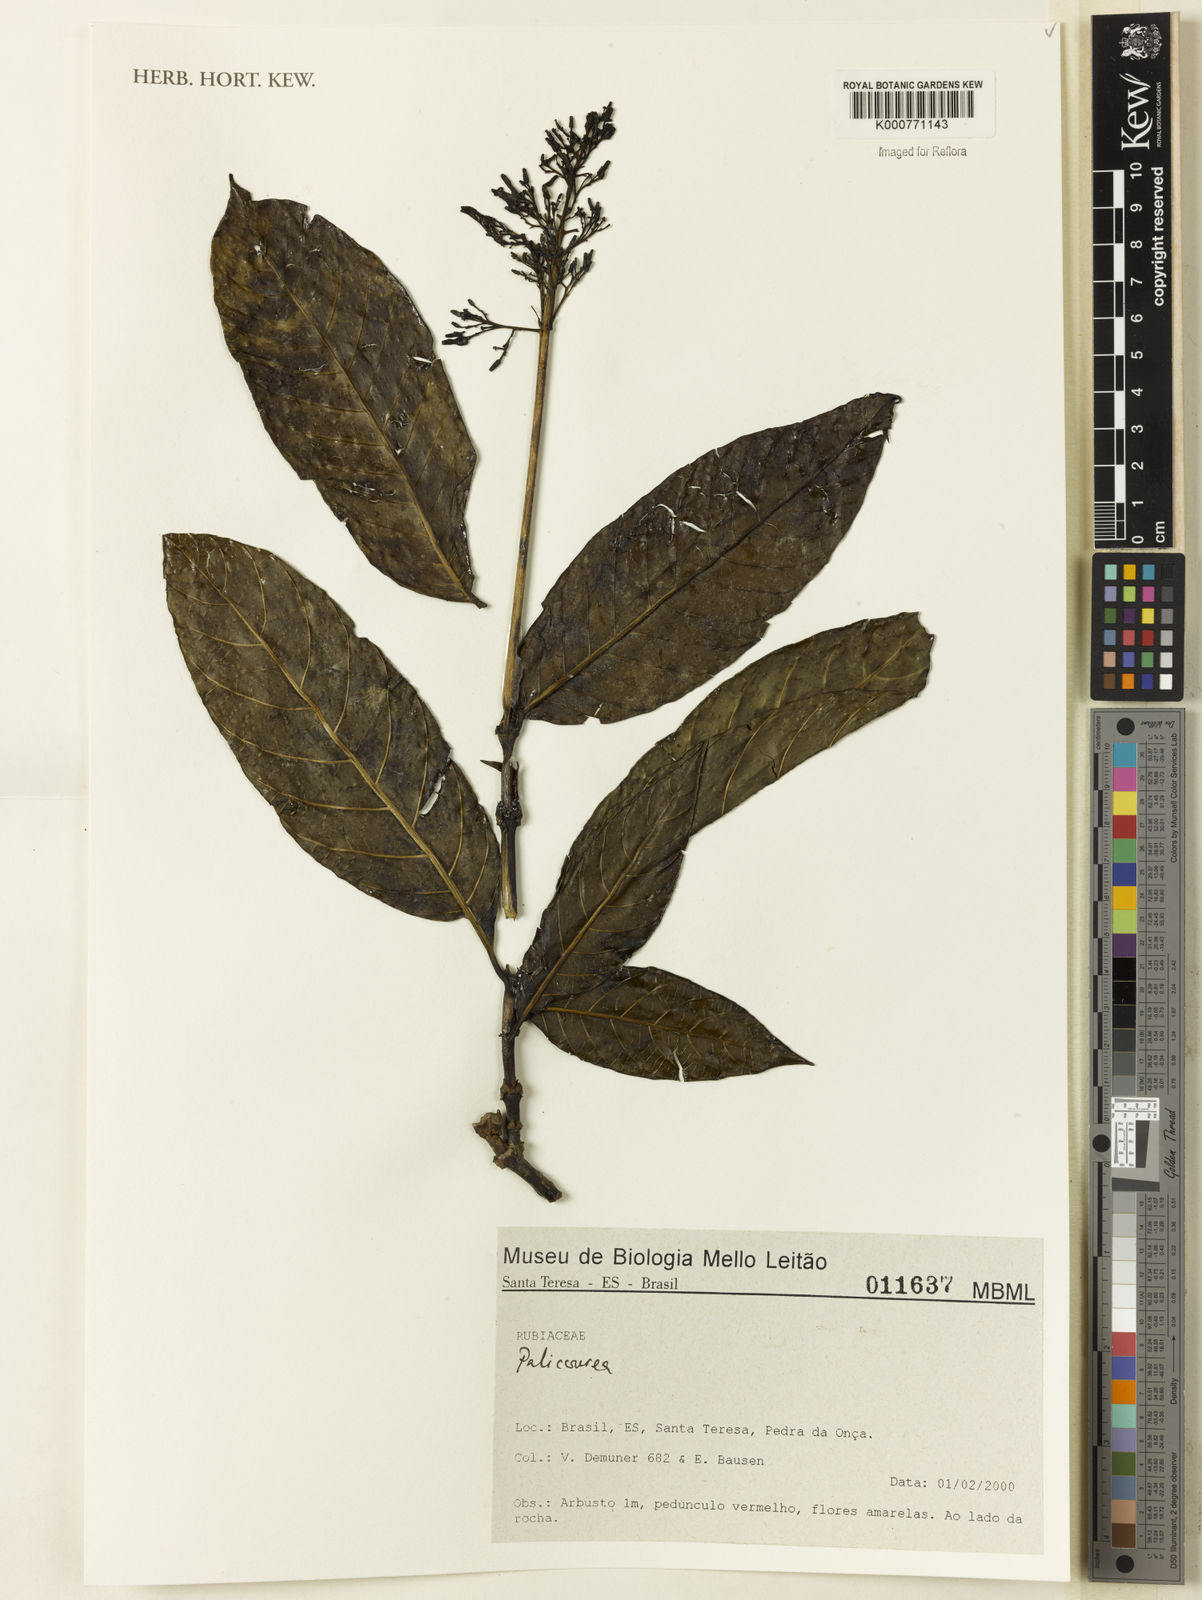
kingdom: Plantae
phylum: Tracheophyta
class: Magnoliopsida
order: Gentianales
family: Rubiaceae
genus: Palicourea
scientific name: Palicourea
